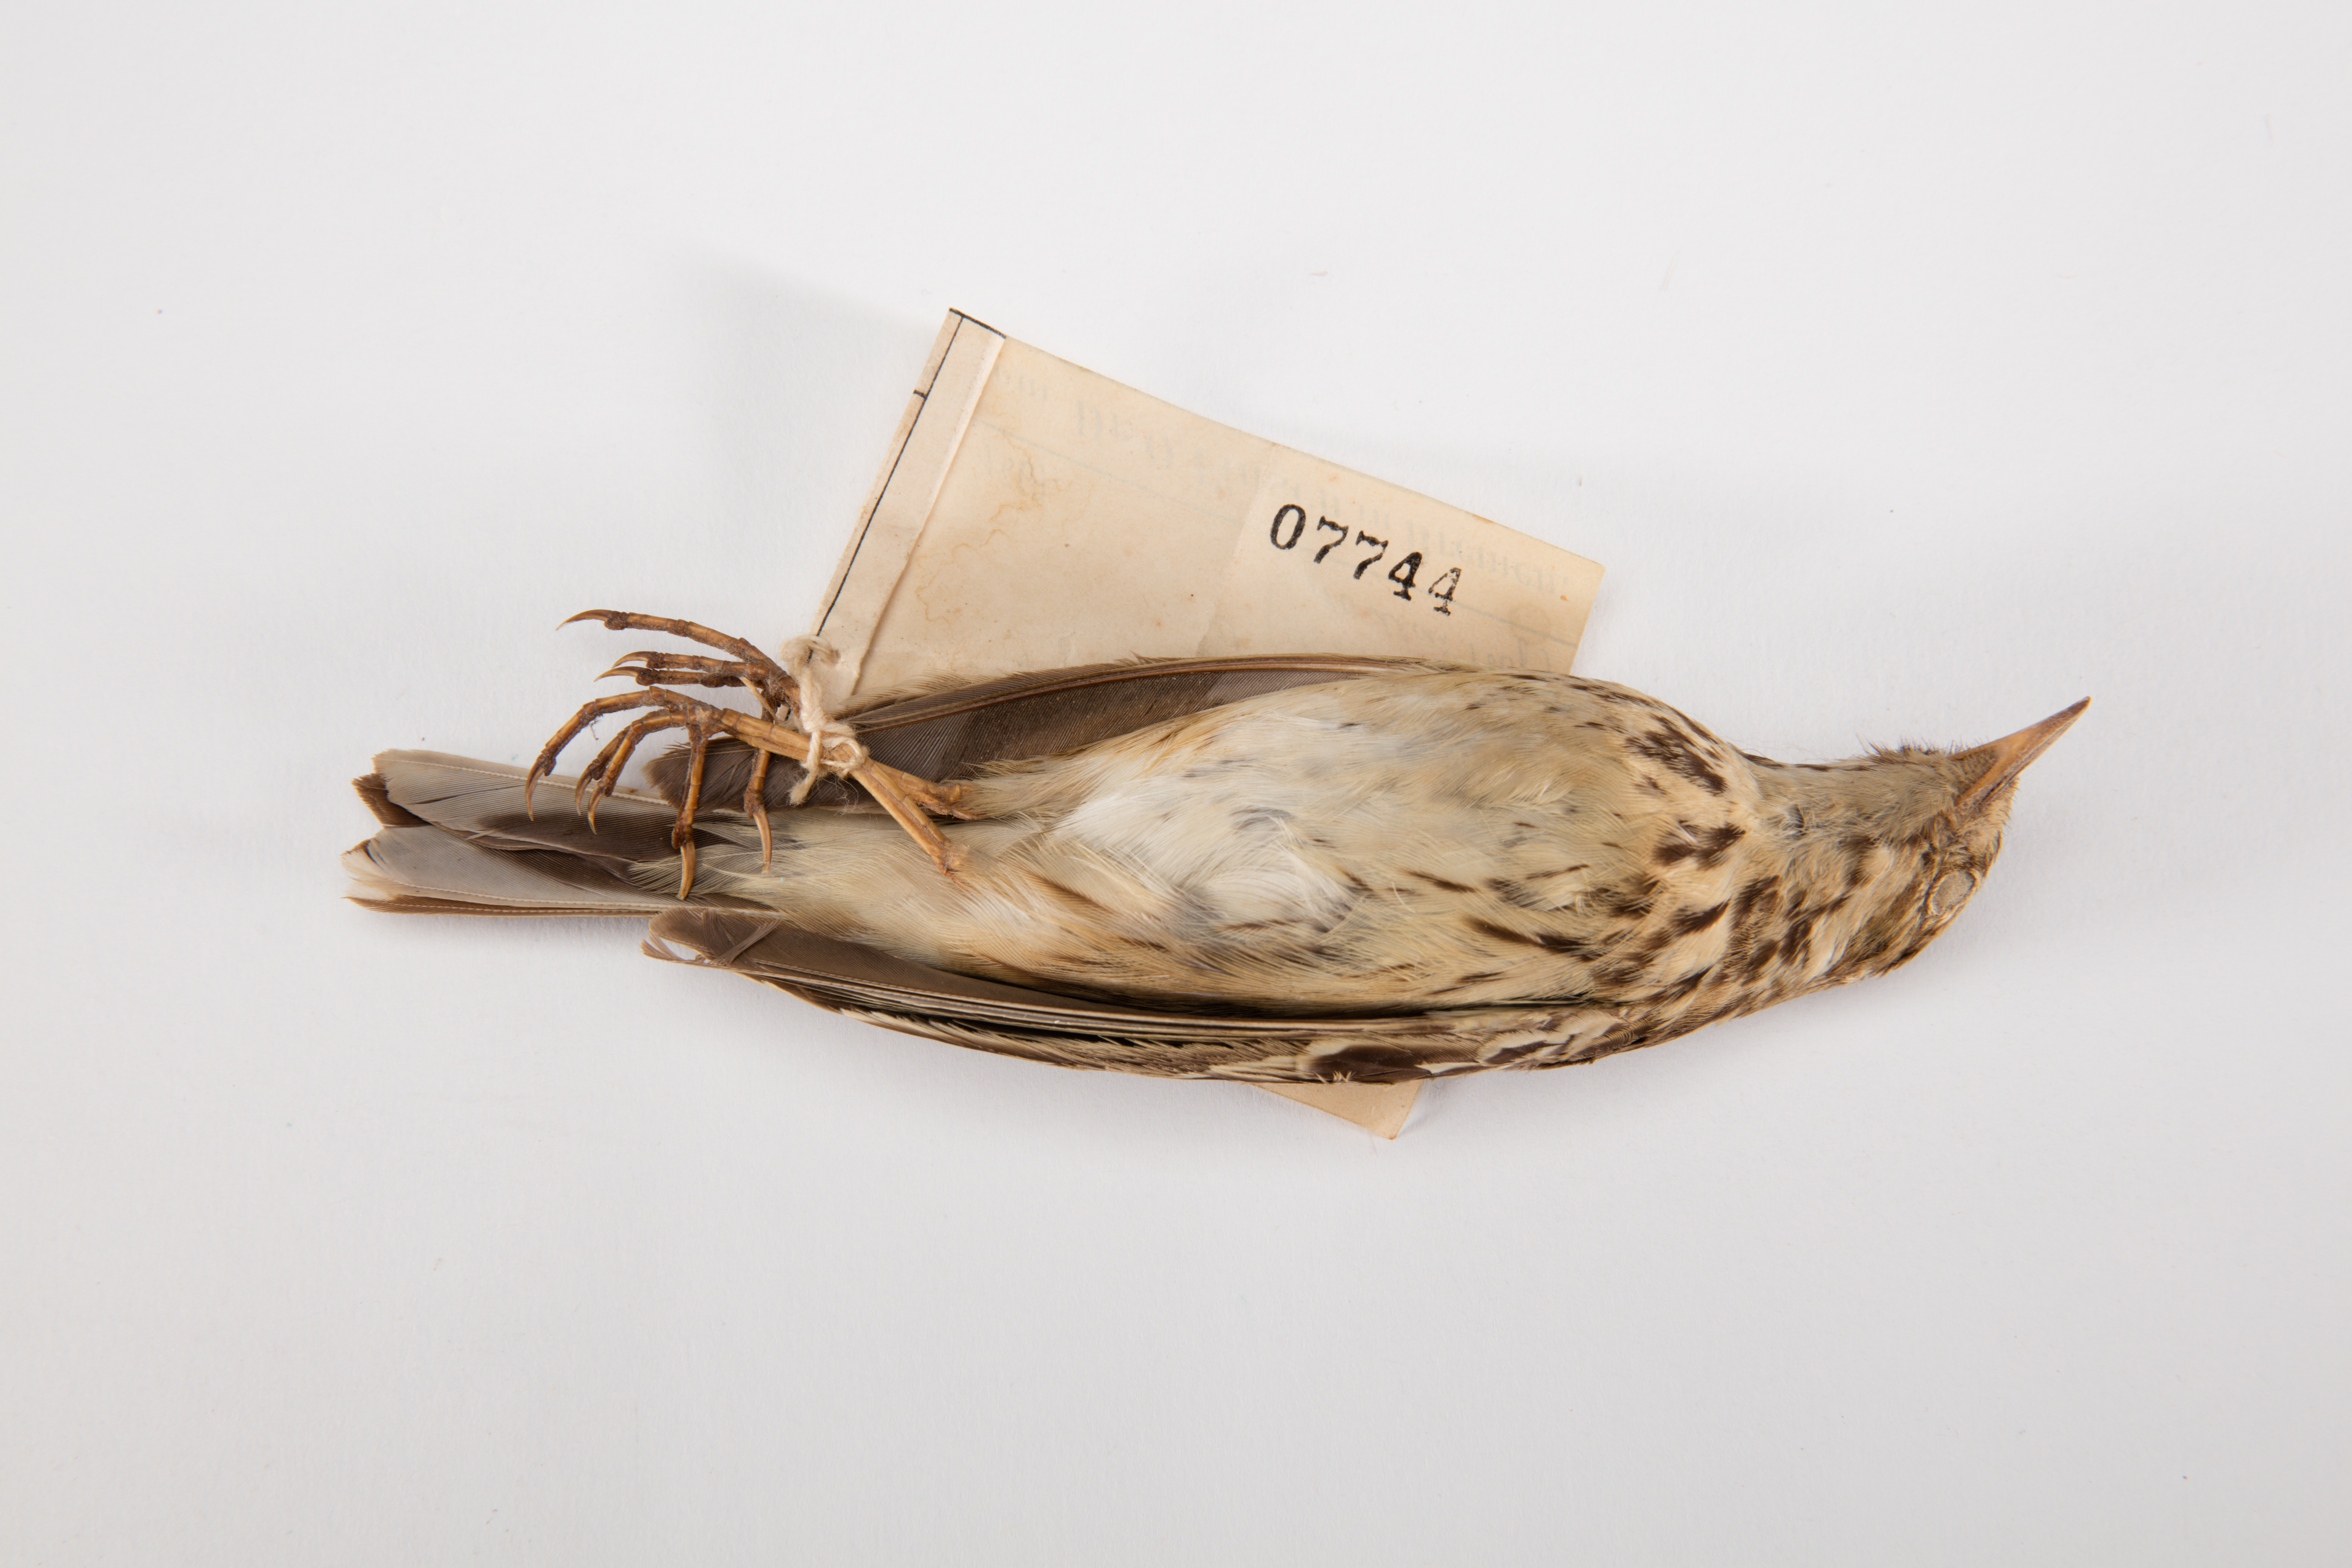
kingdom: Animalia
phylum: Chordata
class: Aves
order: Passeriformes
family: Motacillidae
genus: Anthus
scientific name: Anthus pratensis
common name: Meadow pipit
